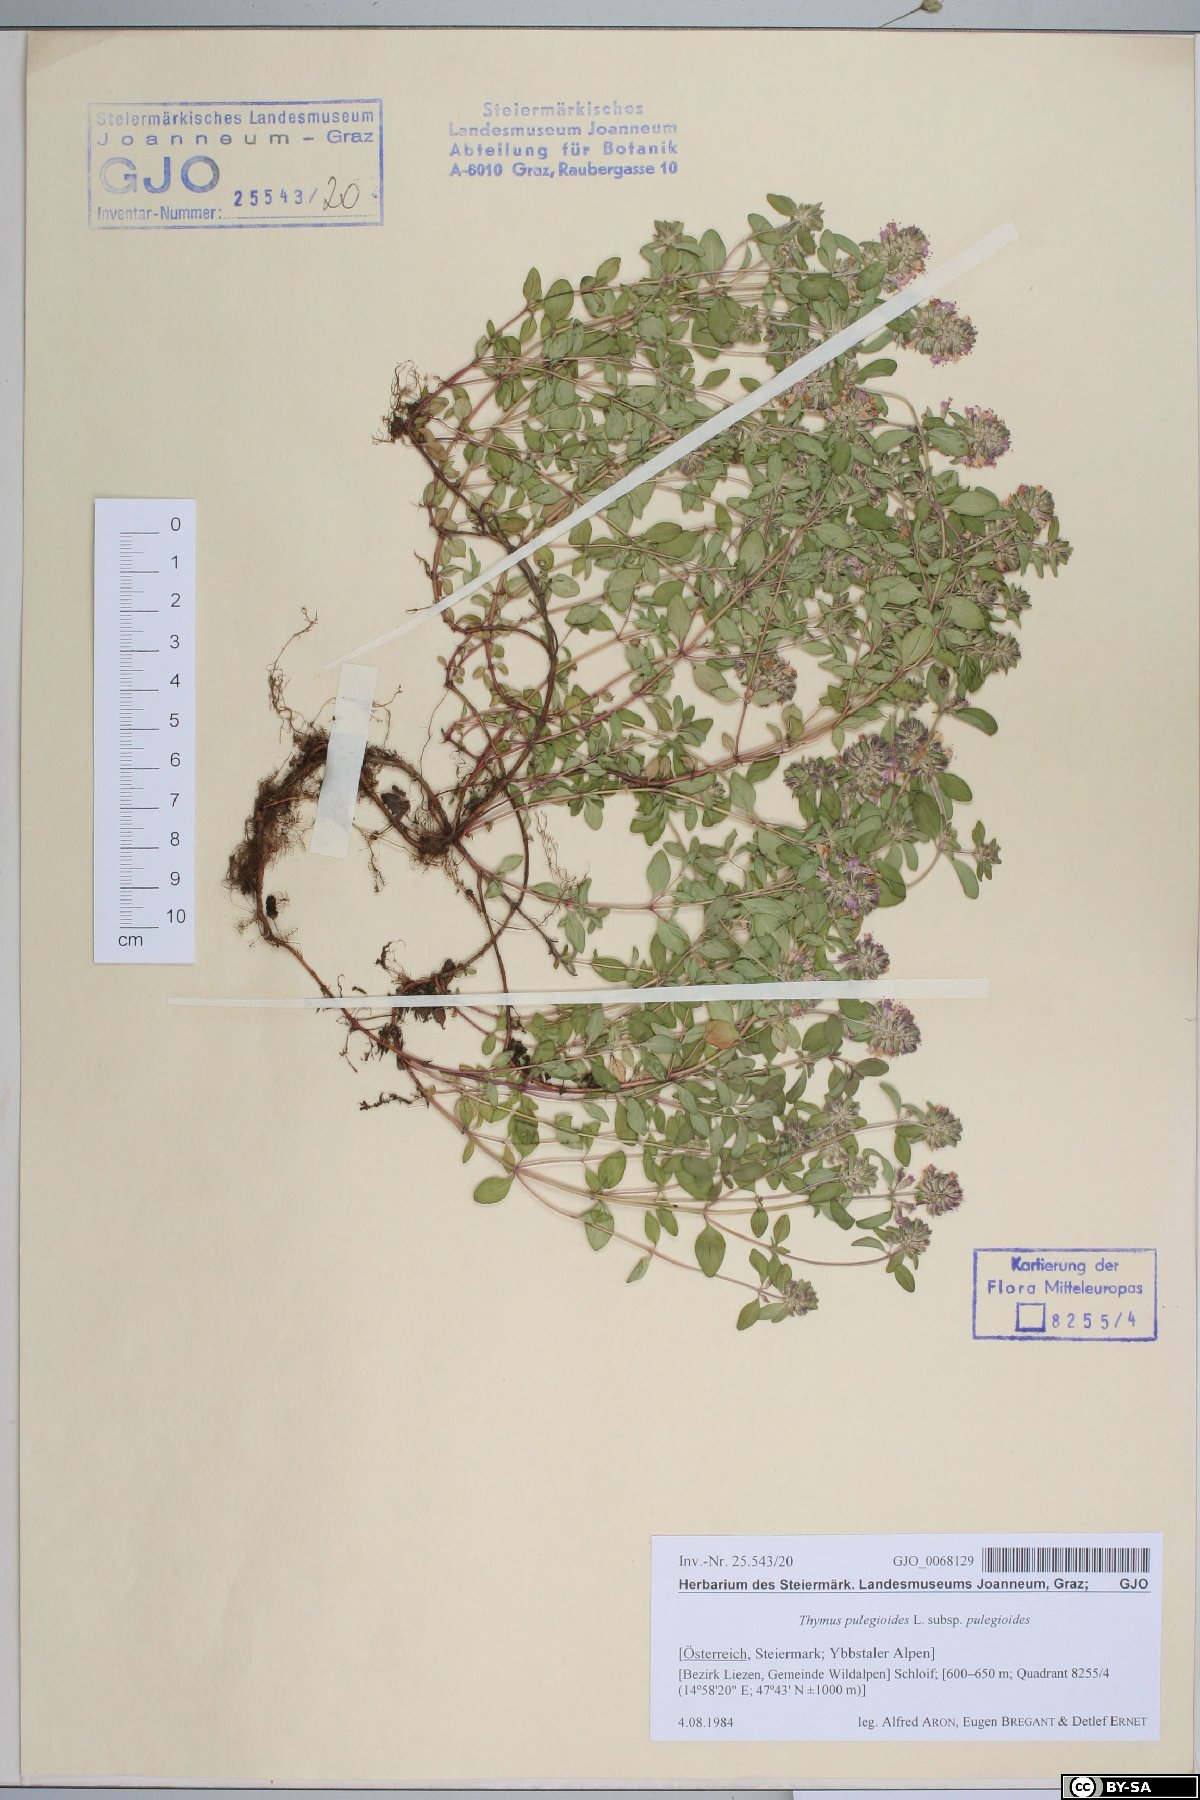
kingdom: Plantae
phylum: Tracheophyta
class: Magnoliopsida
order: Lamiales
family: Lamiaceae
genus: Thymus
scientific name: Thymus pulegioides
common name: Large thyme
